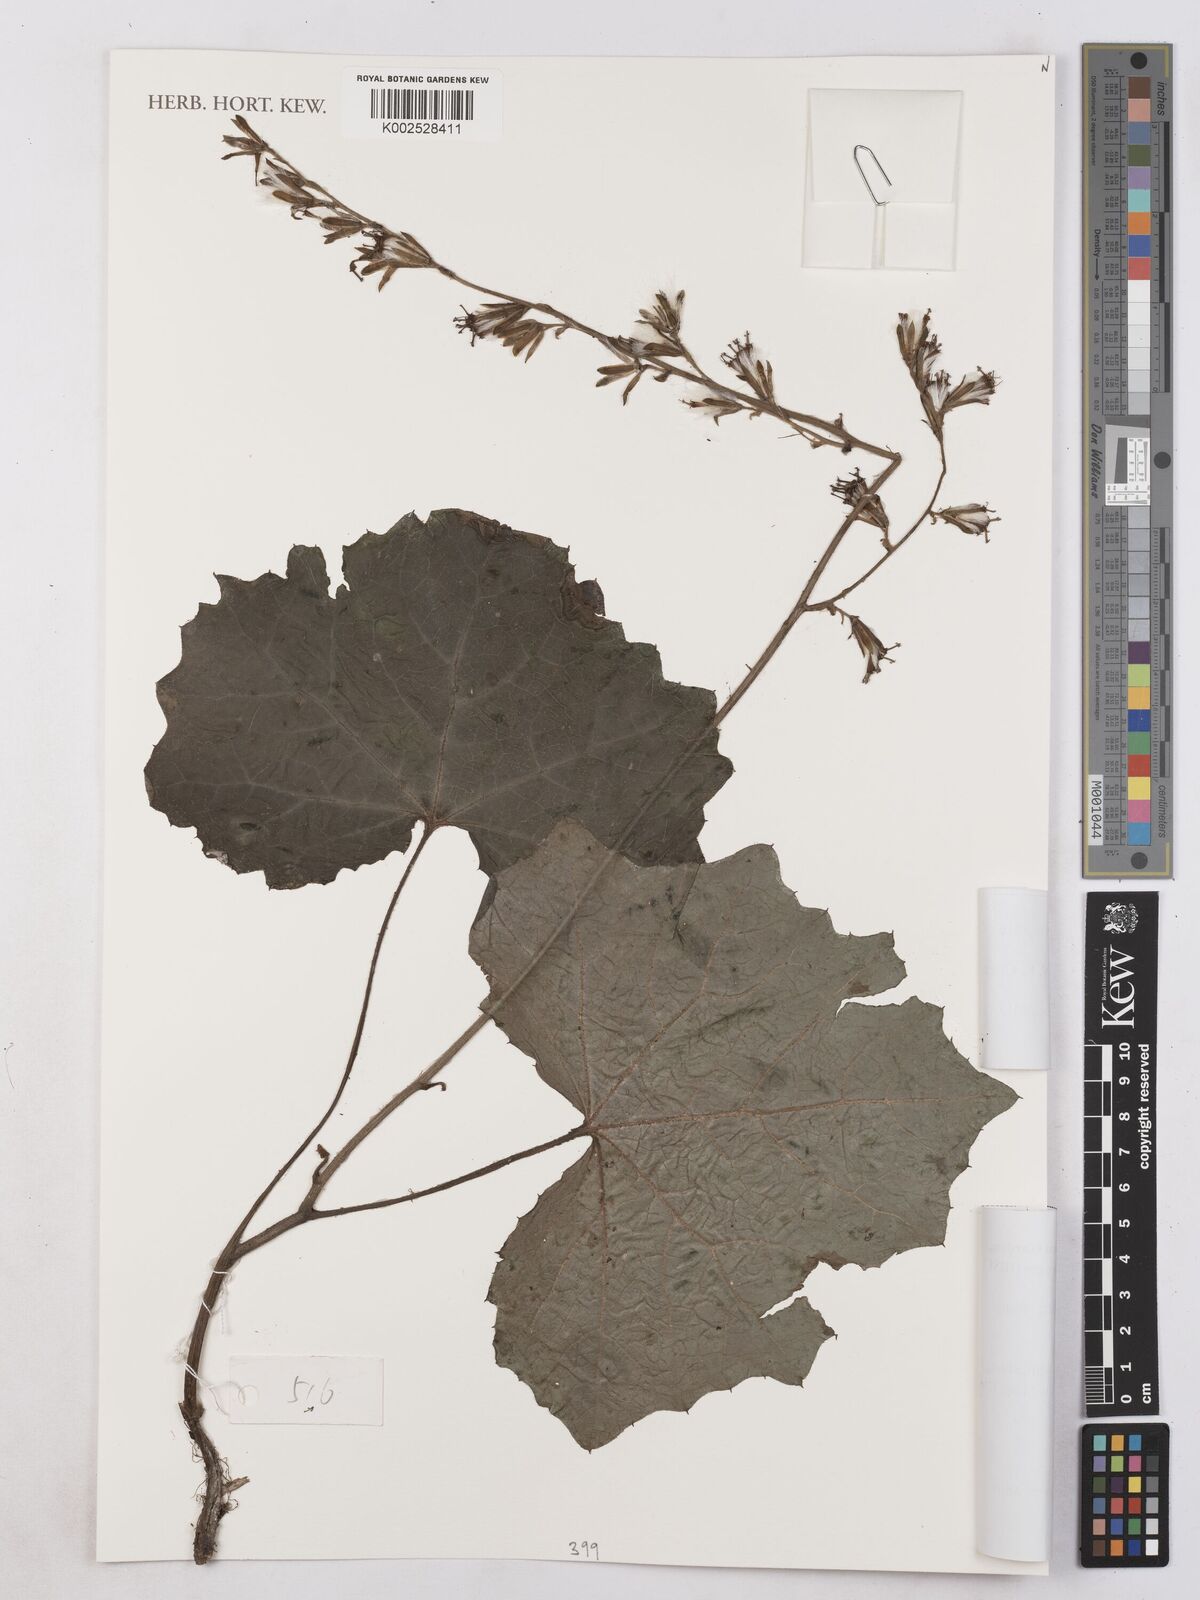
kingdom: Plantae
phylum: Tracheophyta
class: Magnoliopsida
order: Asterales
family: Asteraceae
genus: Parasenecio
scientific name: Parasenecio rufipilis
